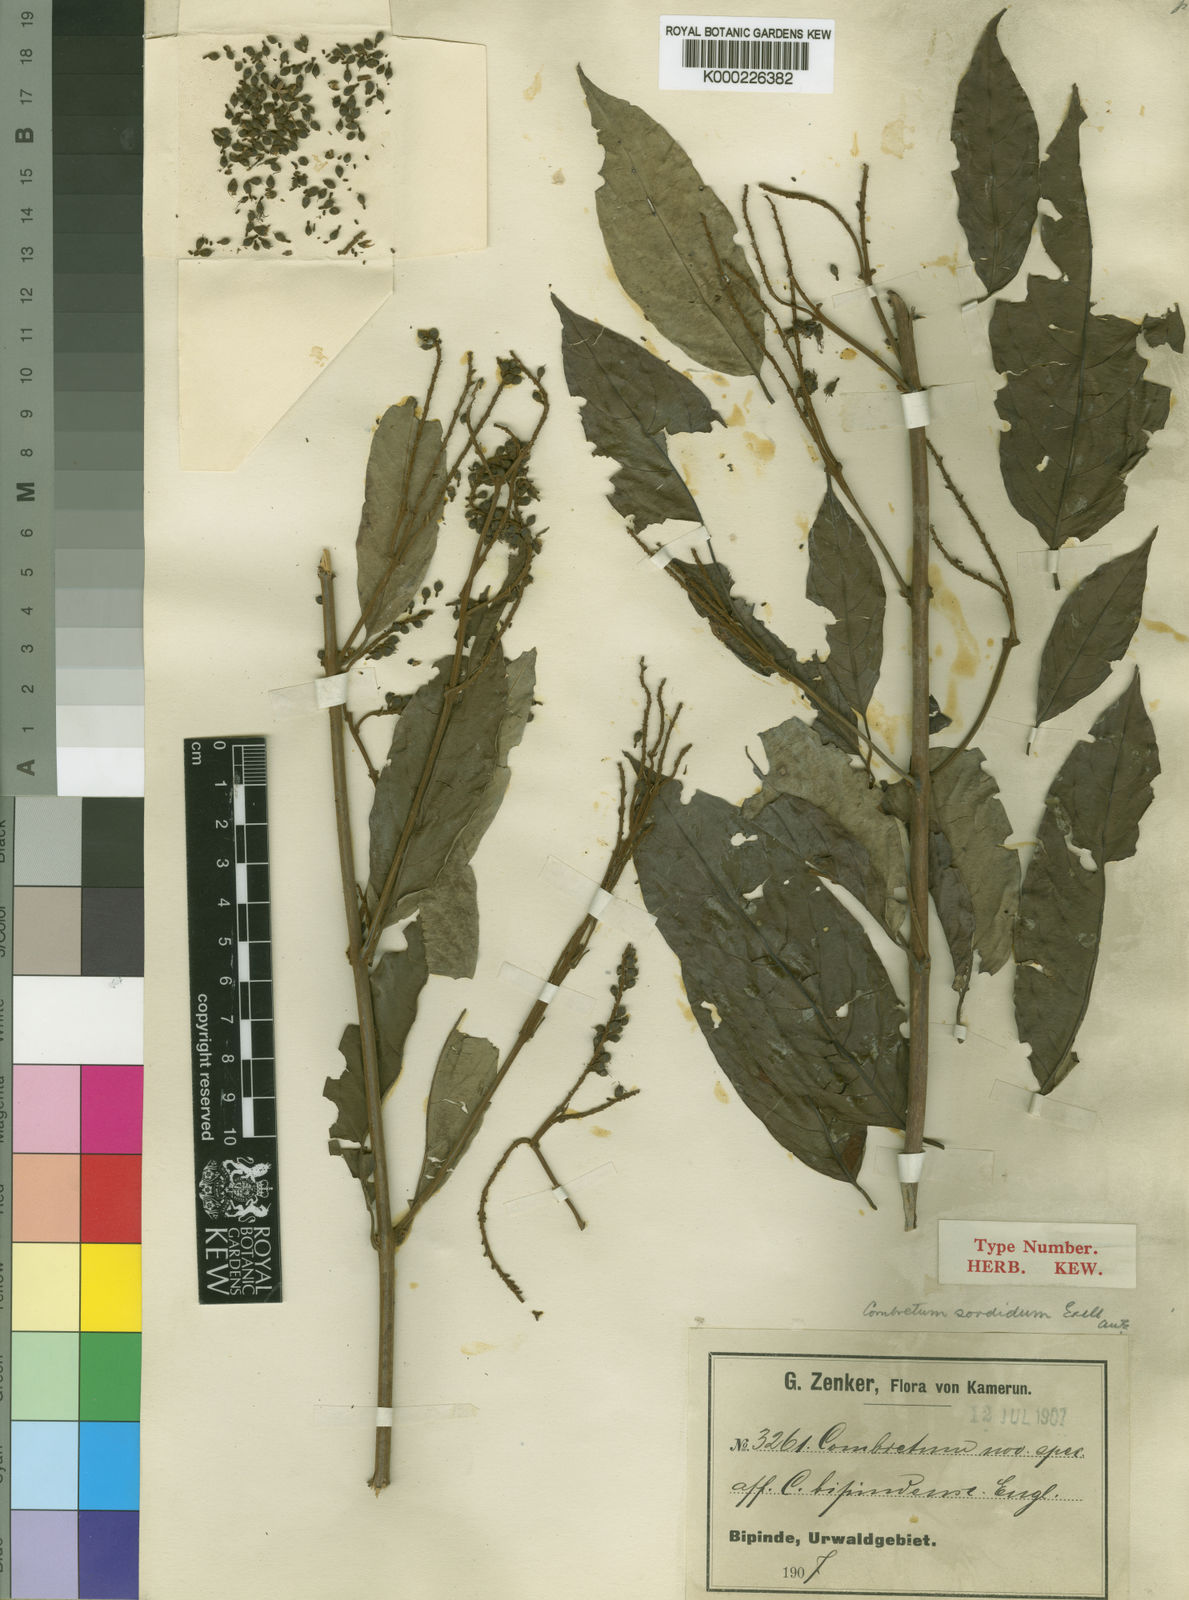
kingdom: Plantae
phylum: Tracheophyta
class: Magnoliopsida
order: Myrtales
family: Combretaceae
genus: Combretum
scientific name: Combretum sordidum
